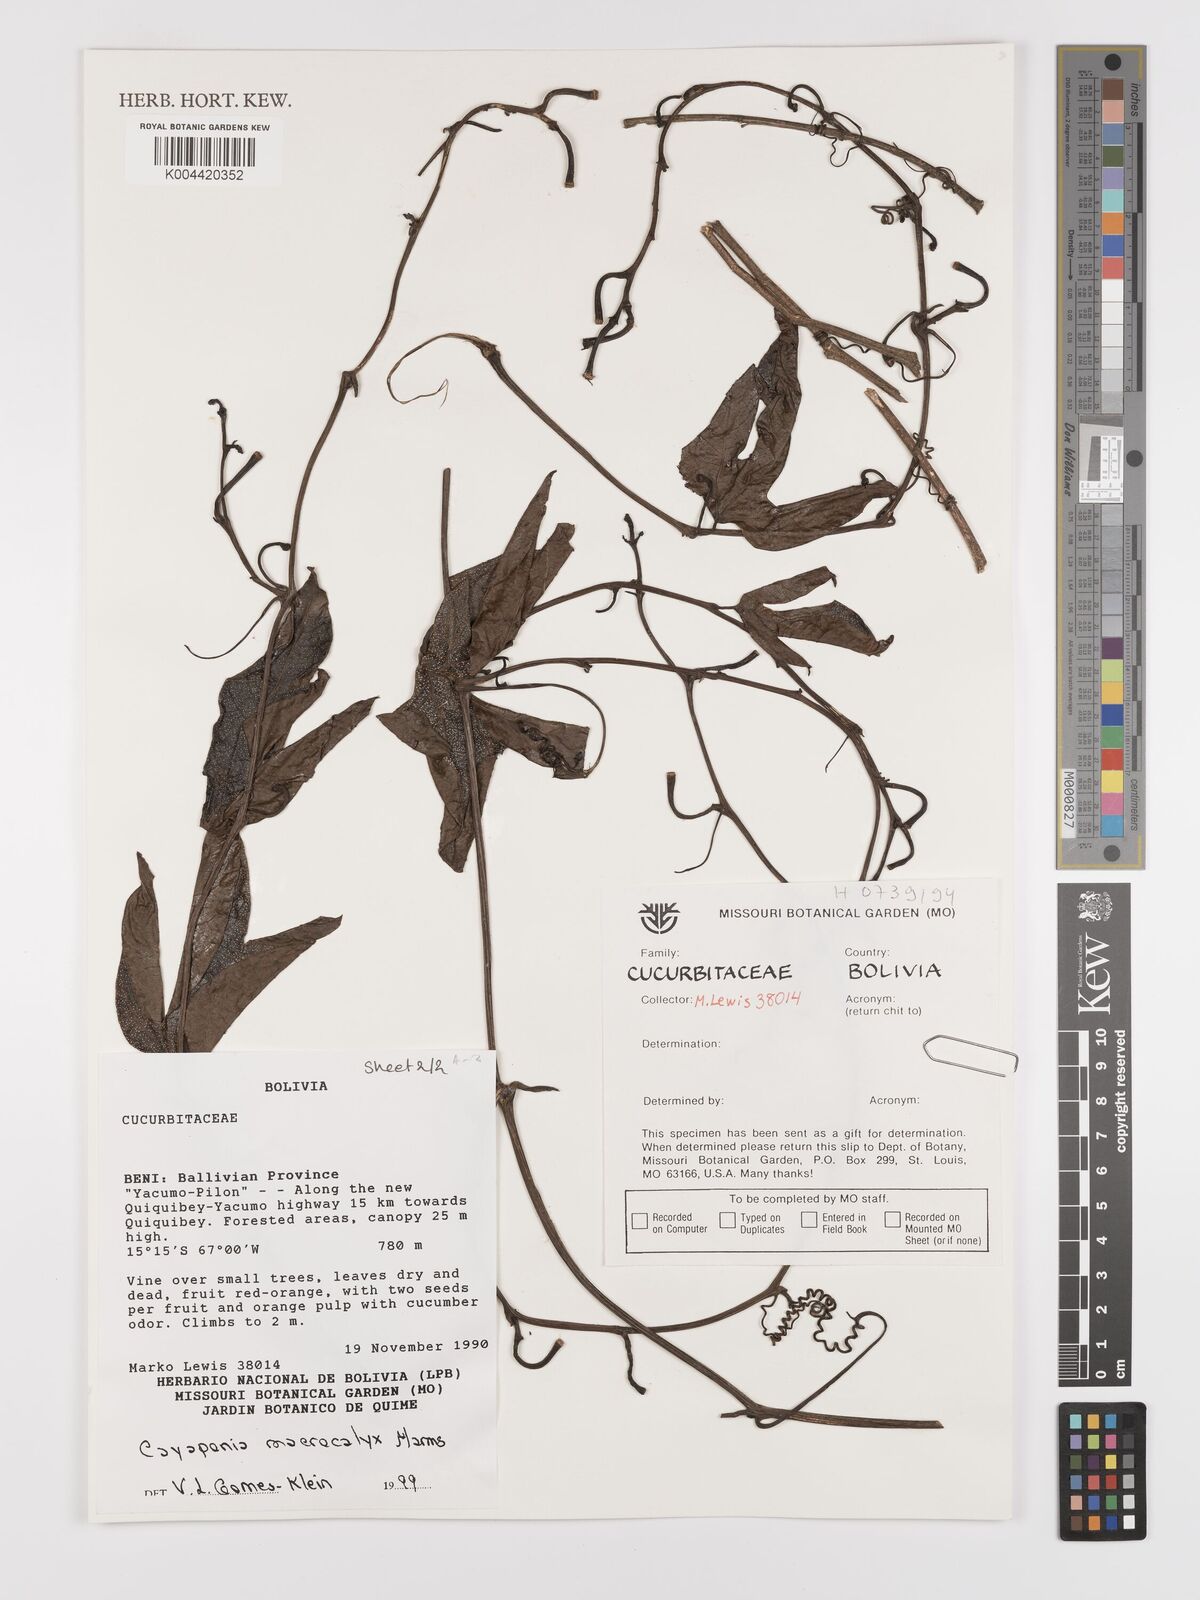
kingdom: Plantae
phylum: Tracheophyta
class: Magnoliopsida
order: Cucurbitales
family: Cucurbitaceae
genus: Cayaponia
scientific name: Cayaponia macrocalyx
